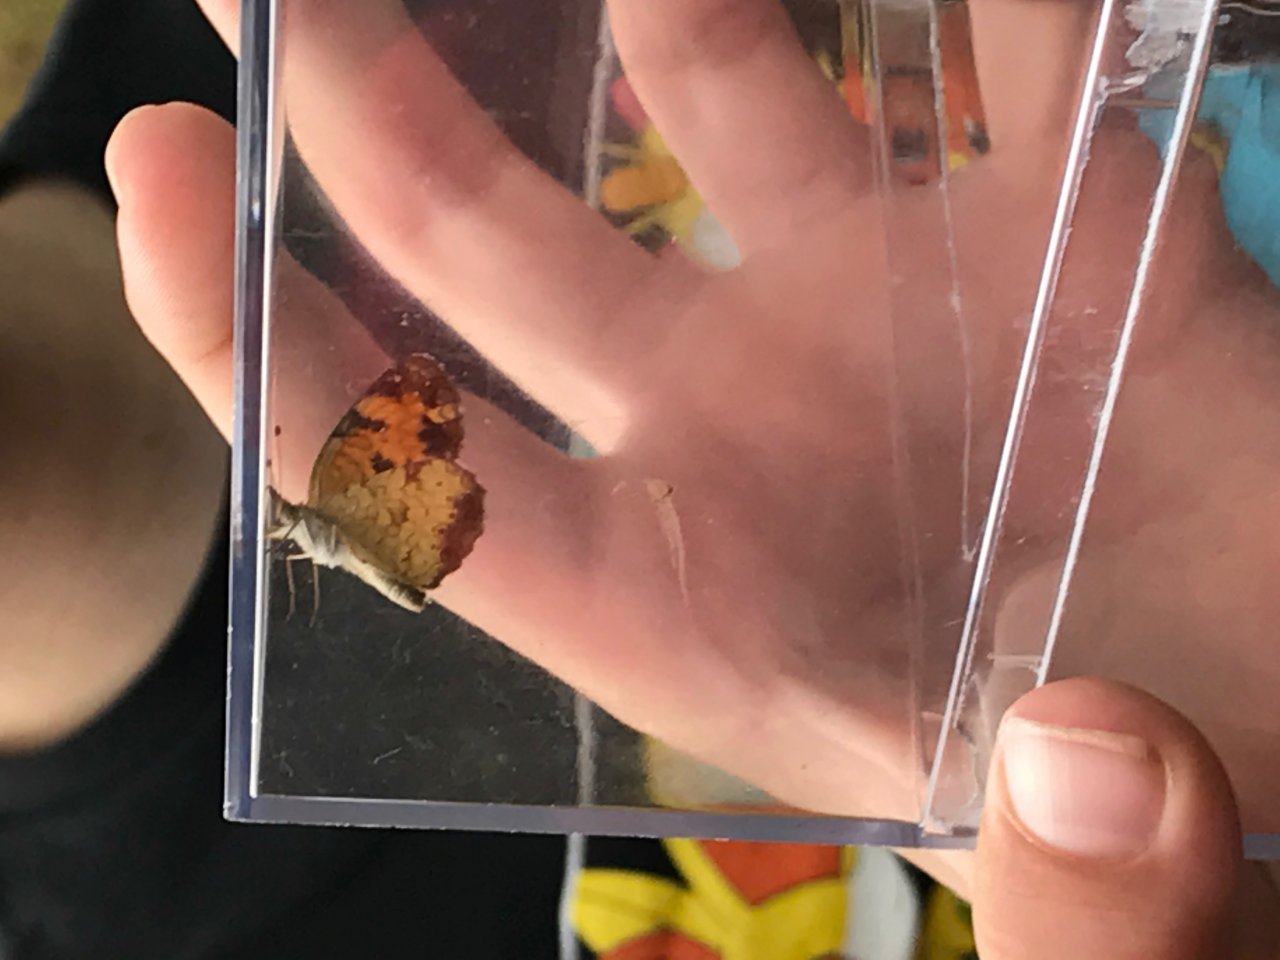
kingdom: Animalia
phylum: Arthropoda
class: Insecta
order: Lepidoptera
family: Nymphalidae
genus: Phyciodes
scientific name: Phyciodes tharos
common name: Pearl Crescent
